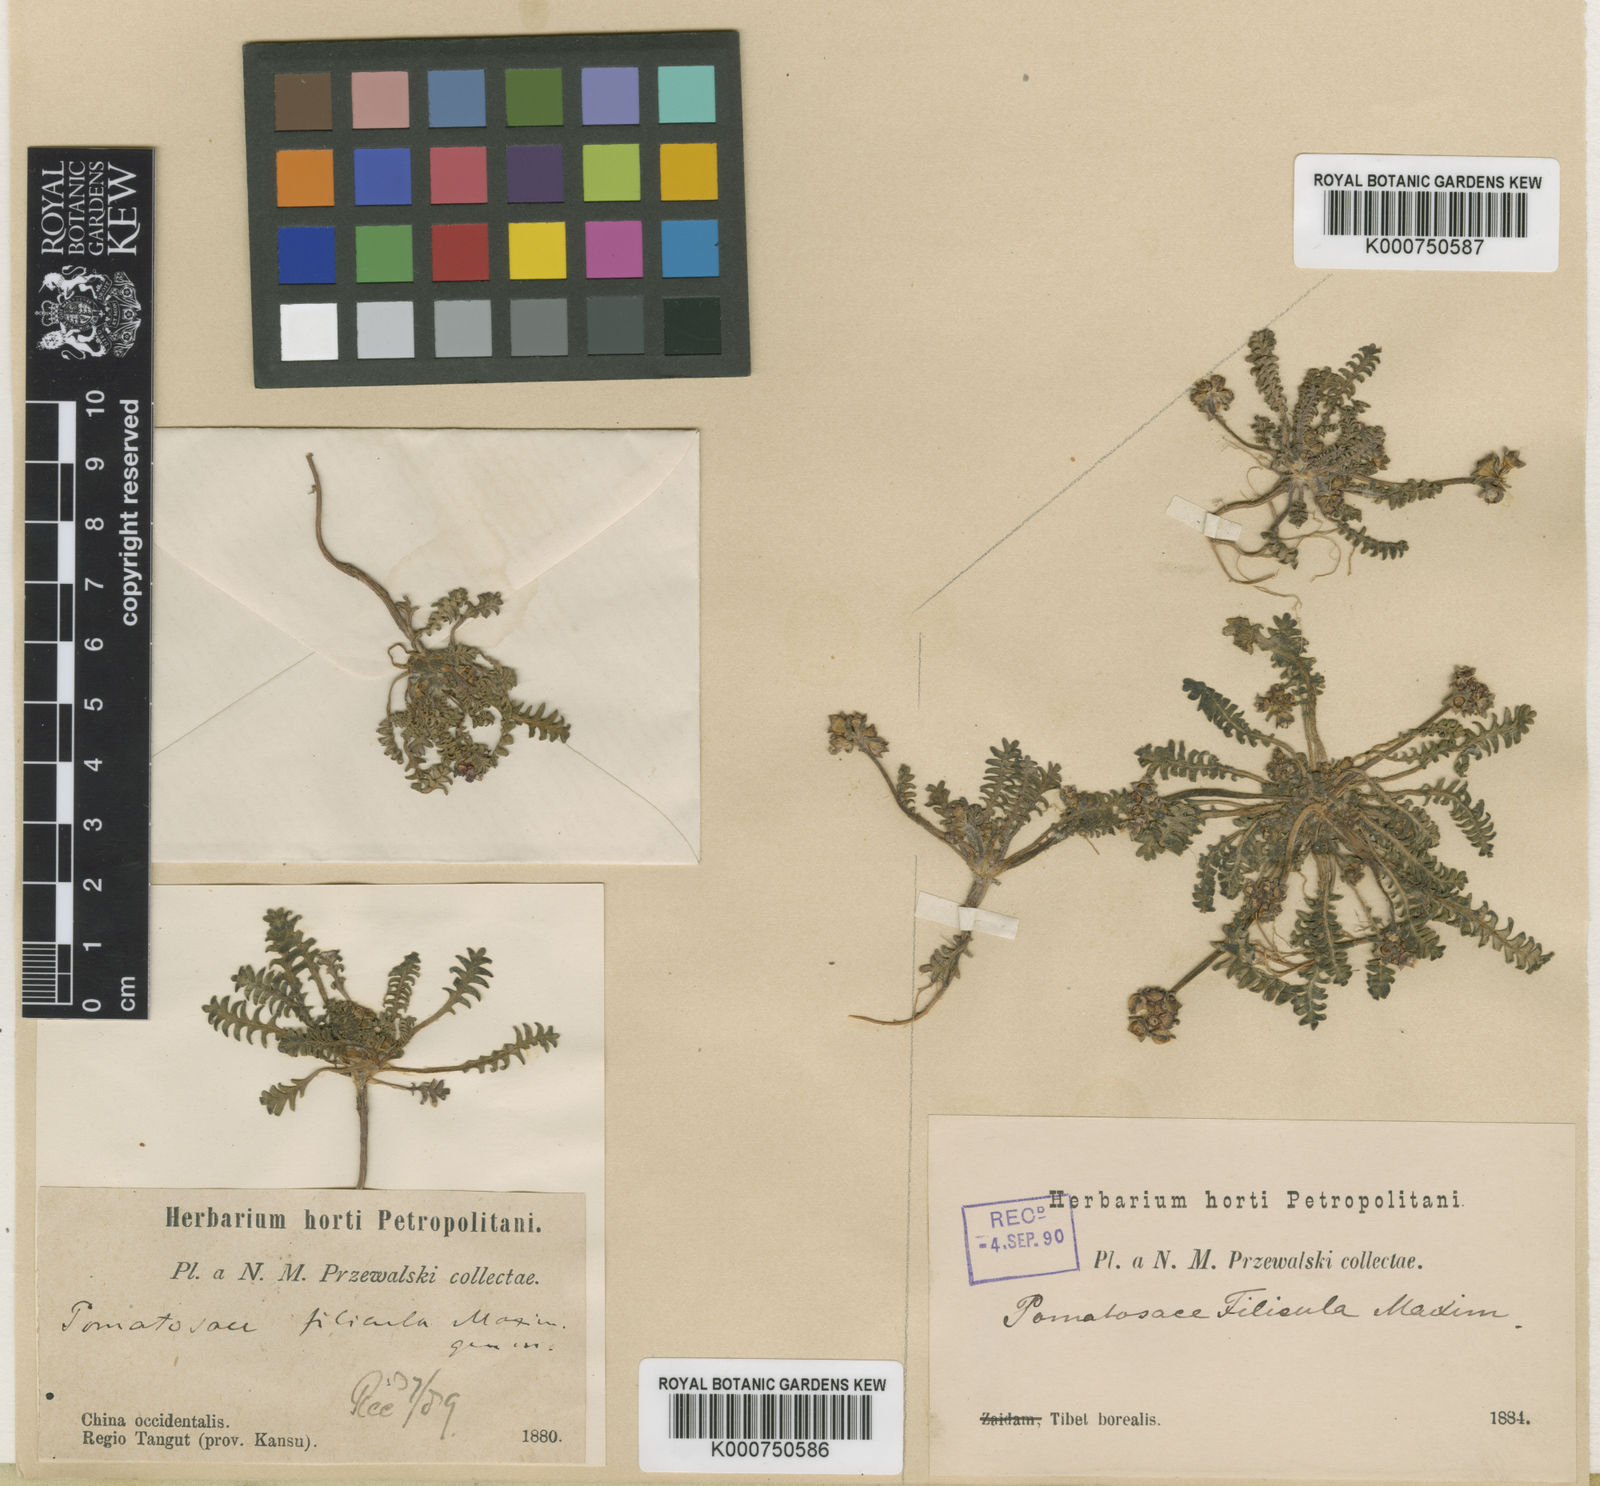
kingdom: Plantae
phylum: Tracheophyta
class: Magnoliopsida
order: Ericales
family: Primulaceae
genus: Pomatosace
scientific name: Pomatosace filicula
